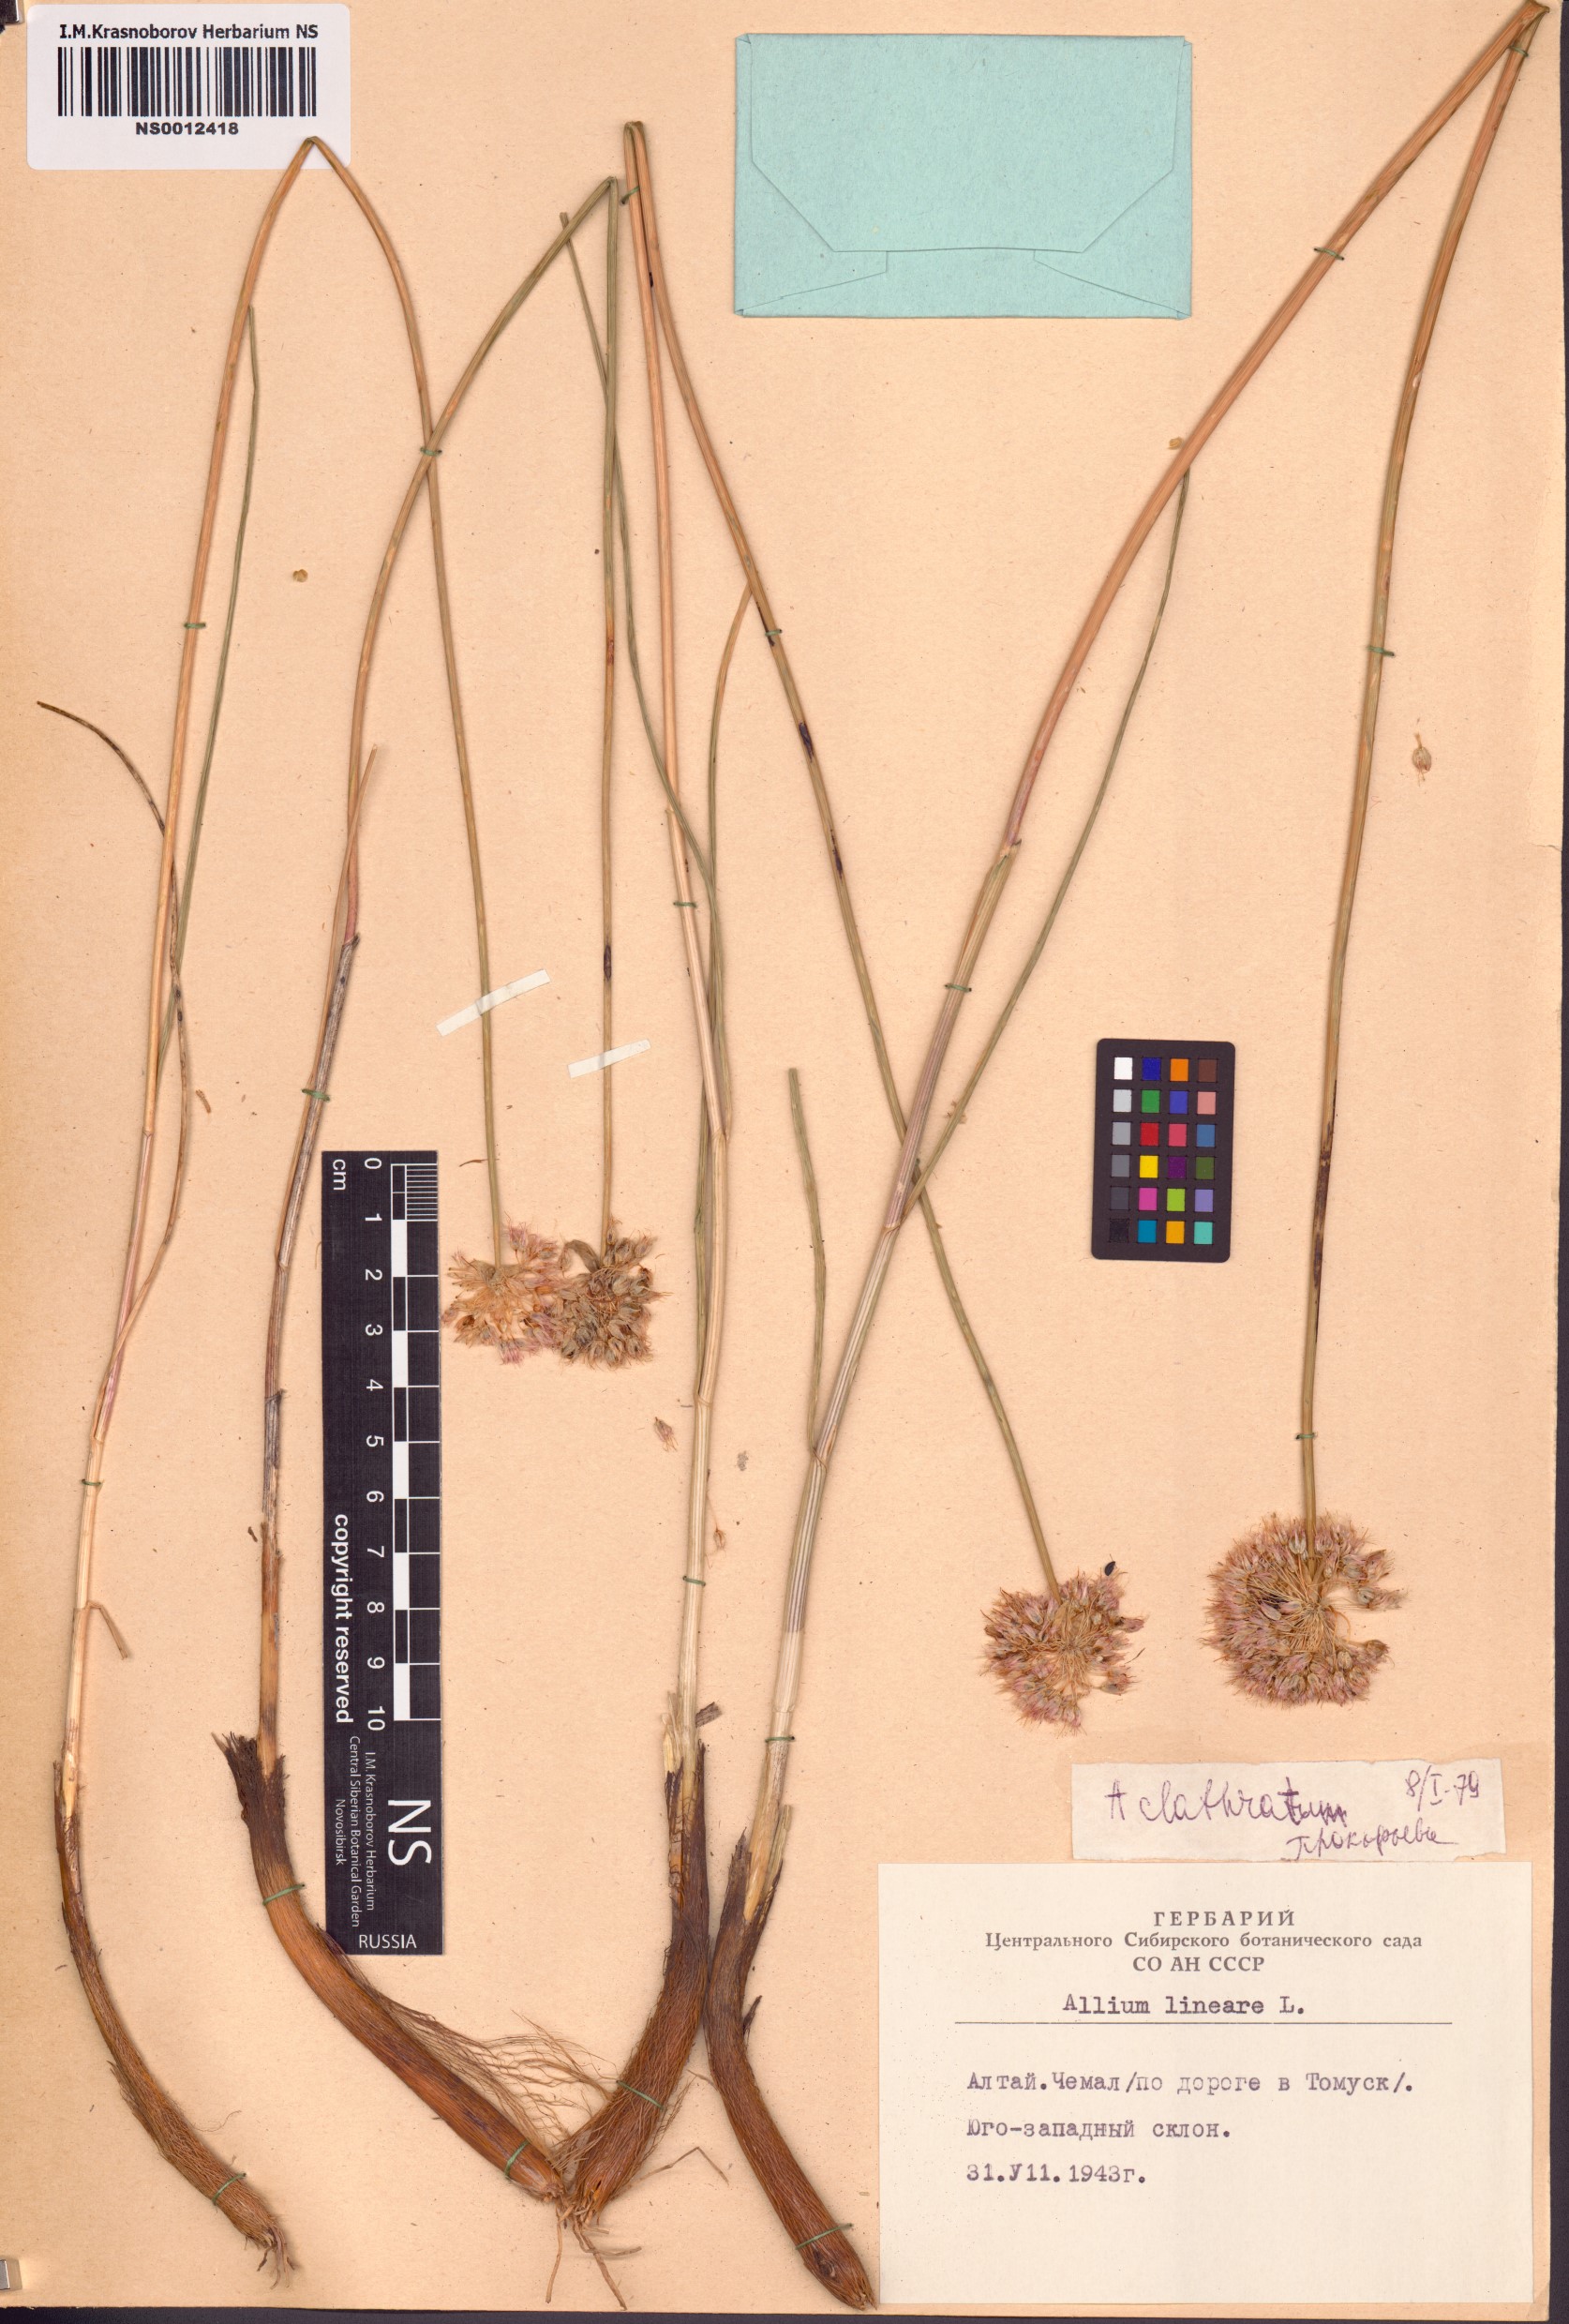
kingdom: Plantae
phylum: Tracheophyta
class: Liliopsida
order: Asparagales
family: Amaryllidaceae
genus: Allium
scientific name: Allium clathratum
